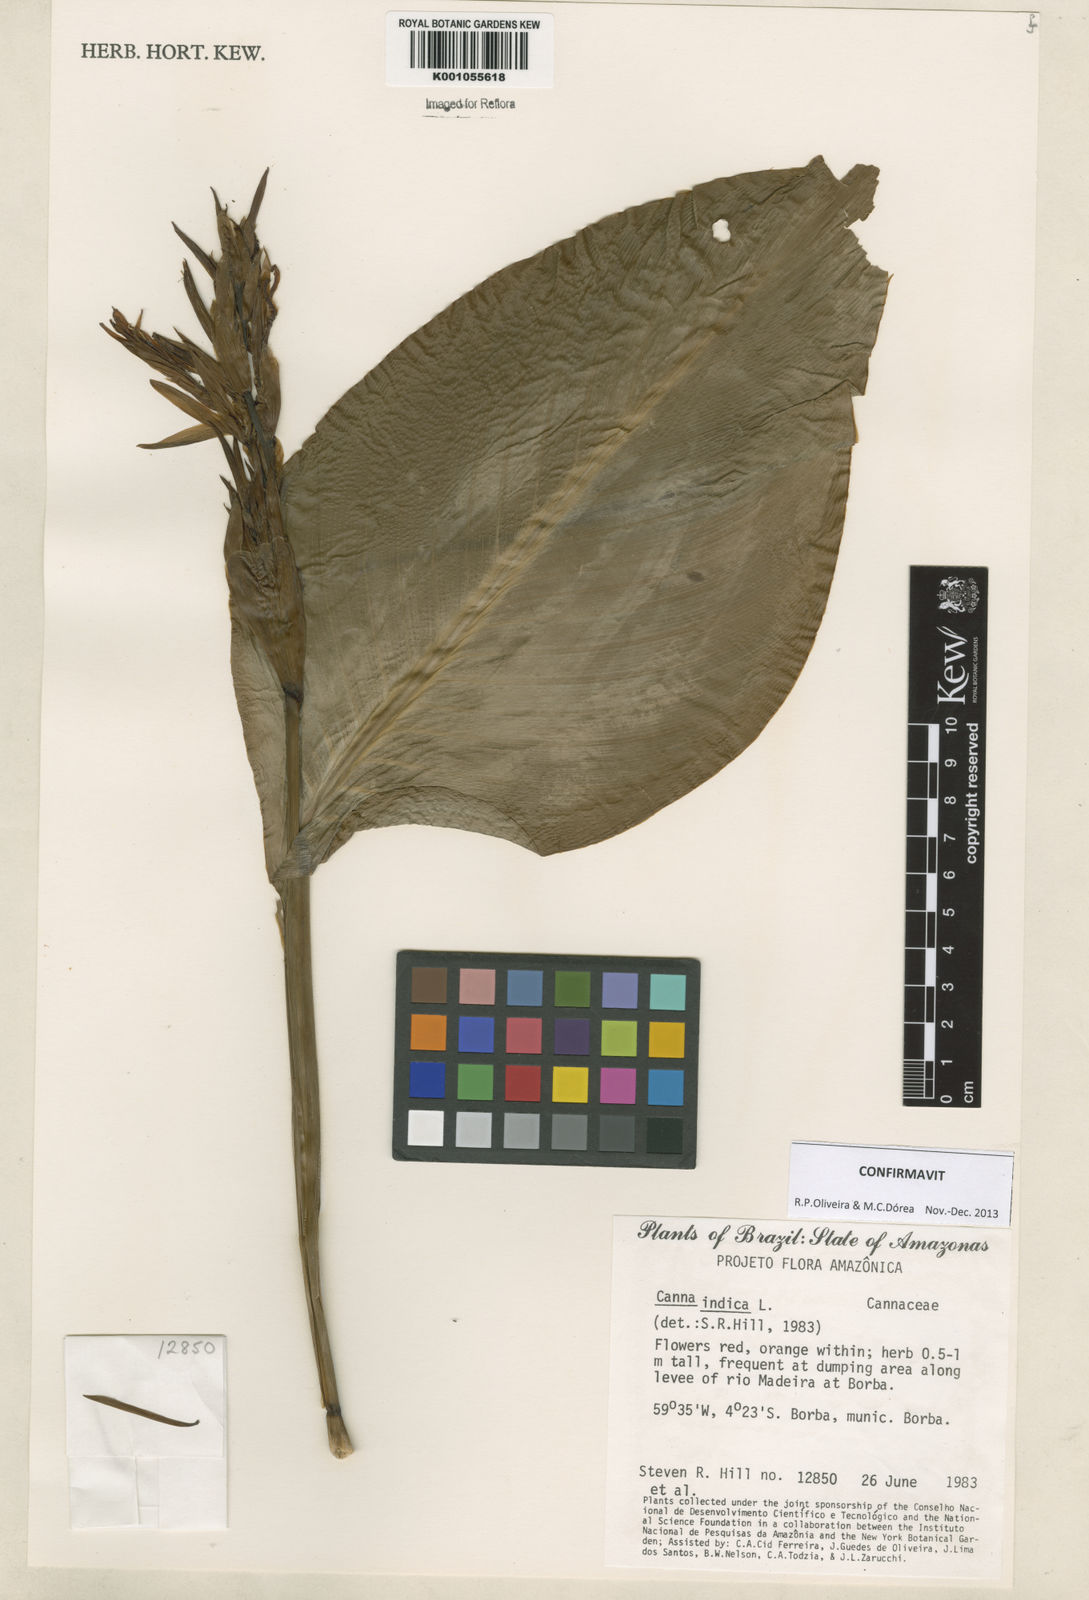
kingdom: Plantae
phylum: Tracheophyta
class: Liliopsida
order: Zingiberales
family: Cannaceae
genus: Canna
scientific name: Canna indica
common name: Indian shot
